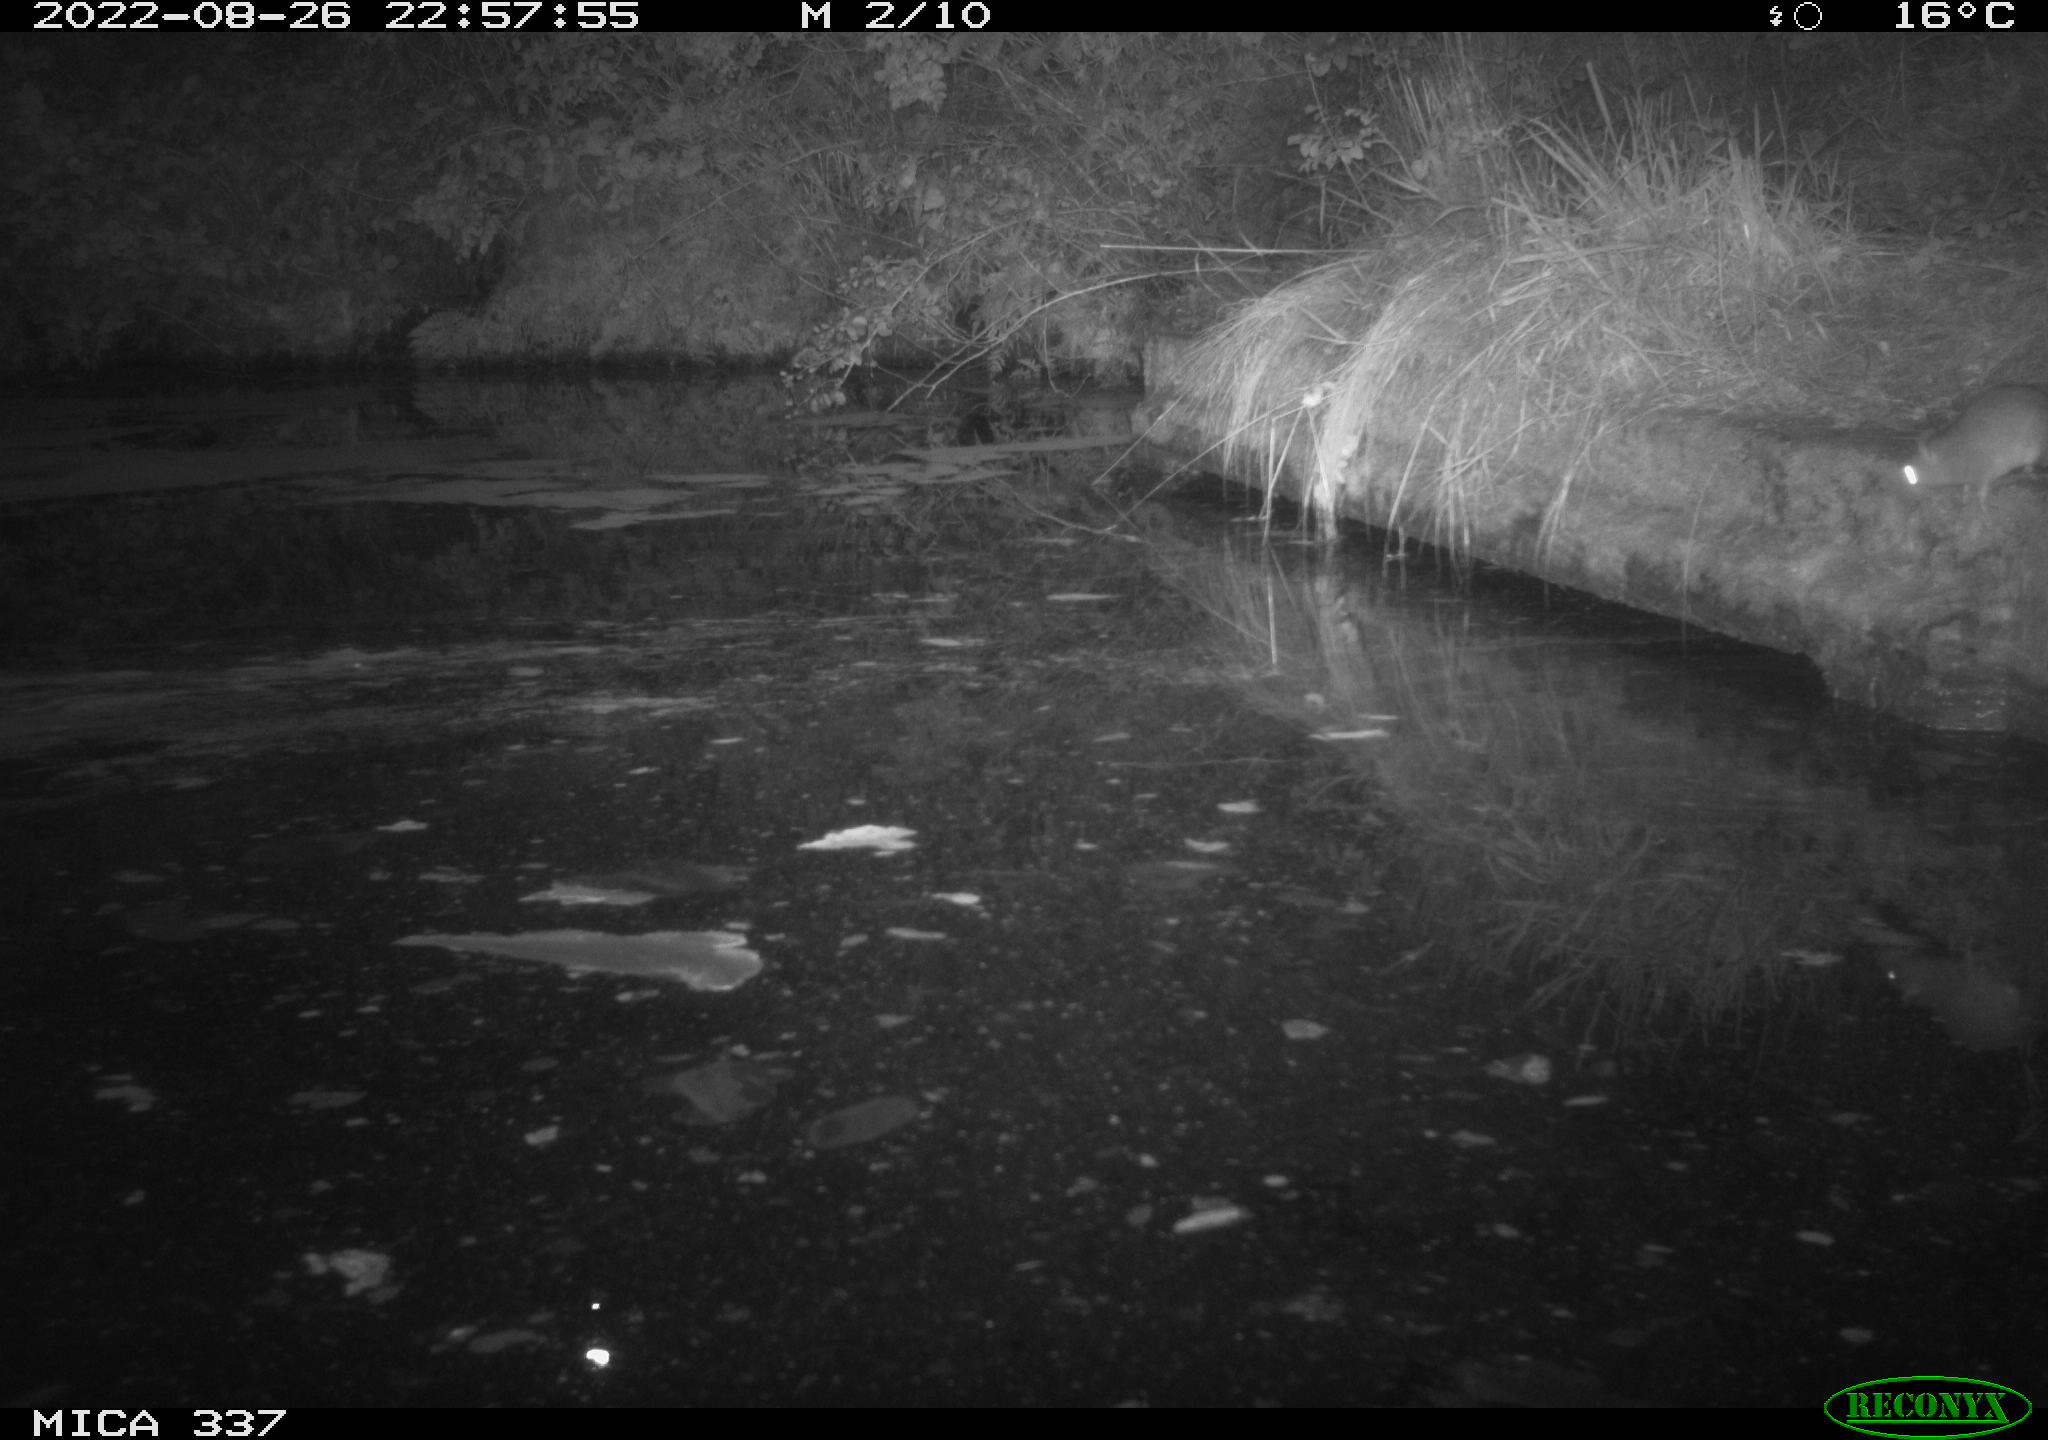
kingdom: Animalia
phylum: Chordata
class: Mammalia
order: Rodentia
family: Muridae
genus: Rattus
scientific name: Rattus norvegicus
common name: Brown rat
